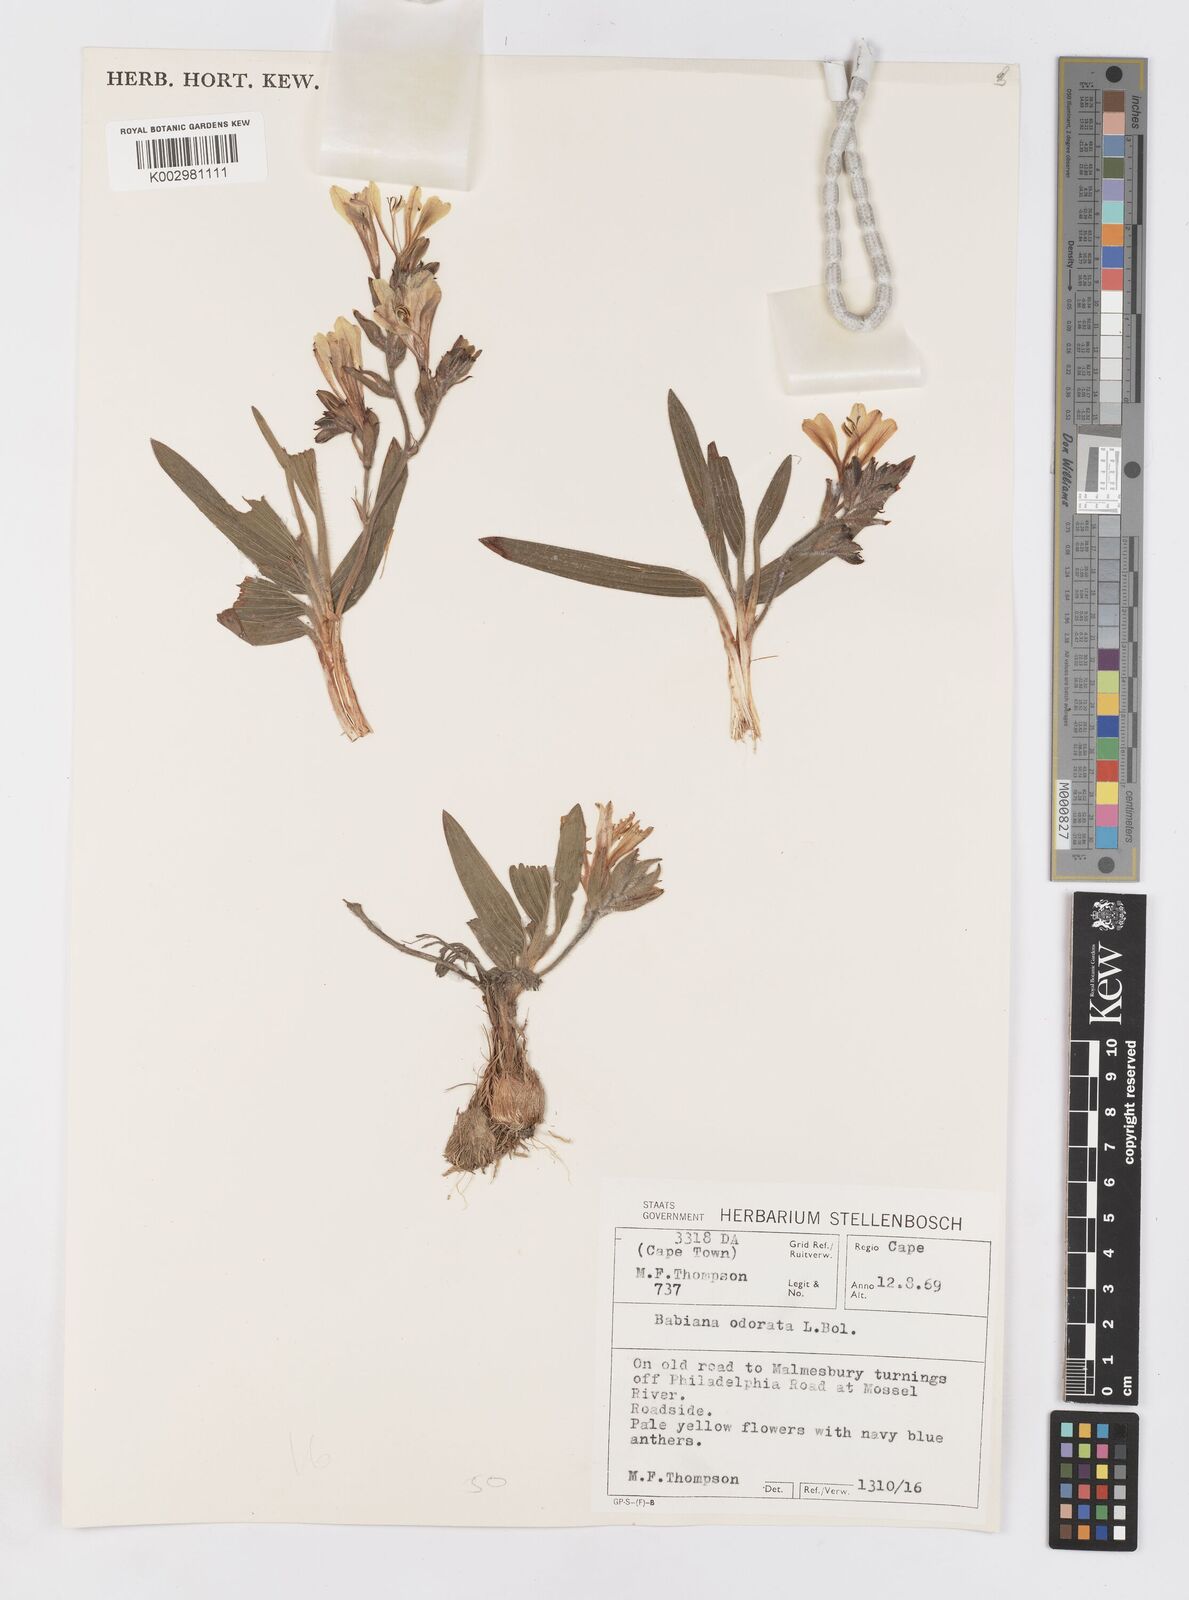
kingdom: Plantae
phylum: Tracheophyta
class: Liliopsida
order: Asparagales
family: Iridaceae
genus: Babiana
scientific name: Babiana odorata
